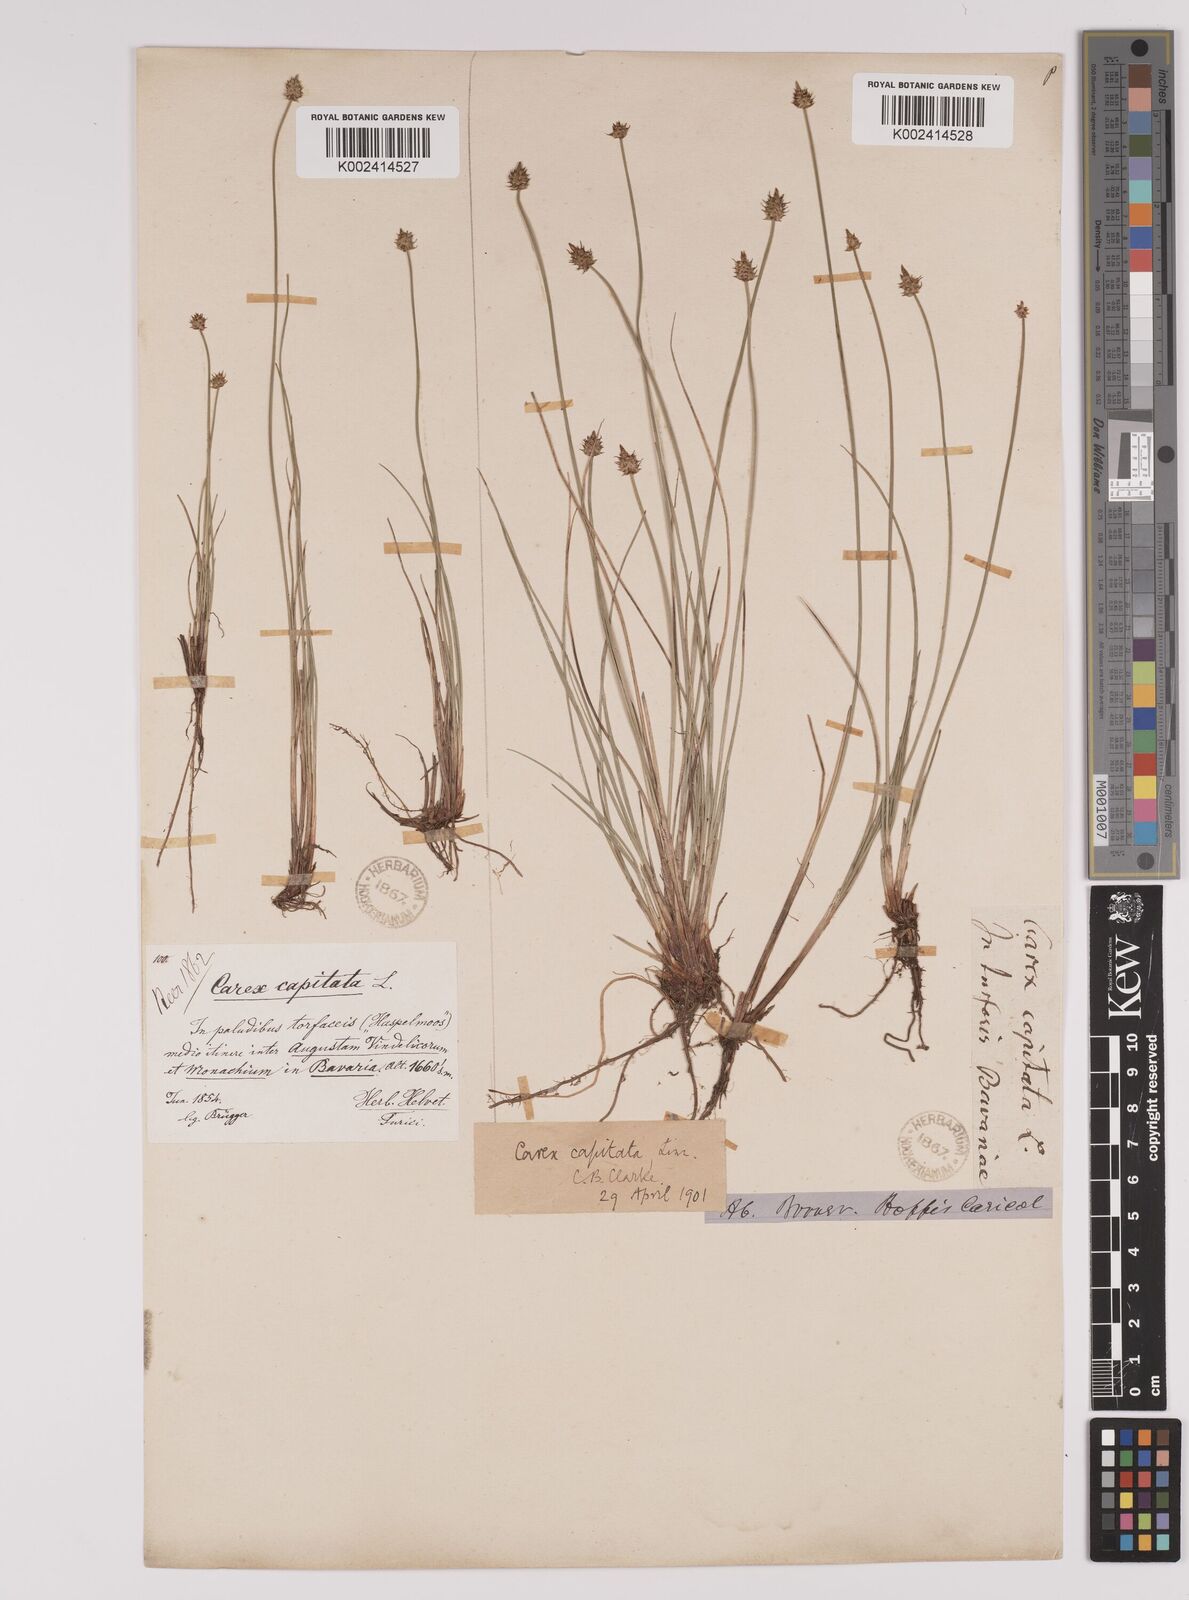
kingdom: Plantae
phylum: Tracheophyta
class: Liliopsida
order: Poales
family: Cyperaceae
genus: Carex
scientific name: Carex capitata
